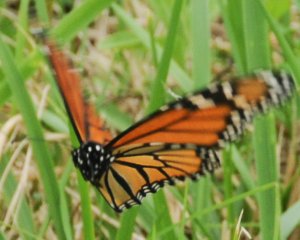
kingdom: Animalia
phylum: Arthropoda
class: Insecta
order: Lepidoptera
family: Nymphalidae
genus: Danaus
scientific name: Danaus plexippus
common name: Monarch
